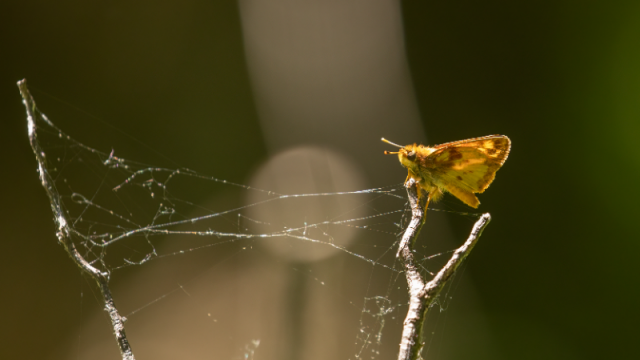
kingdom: Animalia
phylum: Arthropoda
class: Insecta
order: Lepidoptera
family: Hesperiidae
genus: Lon
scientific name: Lon zabulon
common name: Zabulon Skipper
